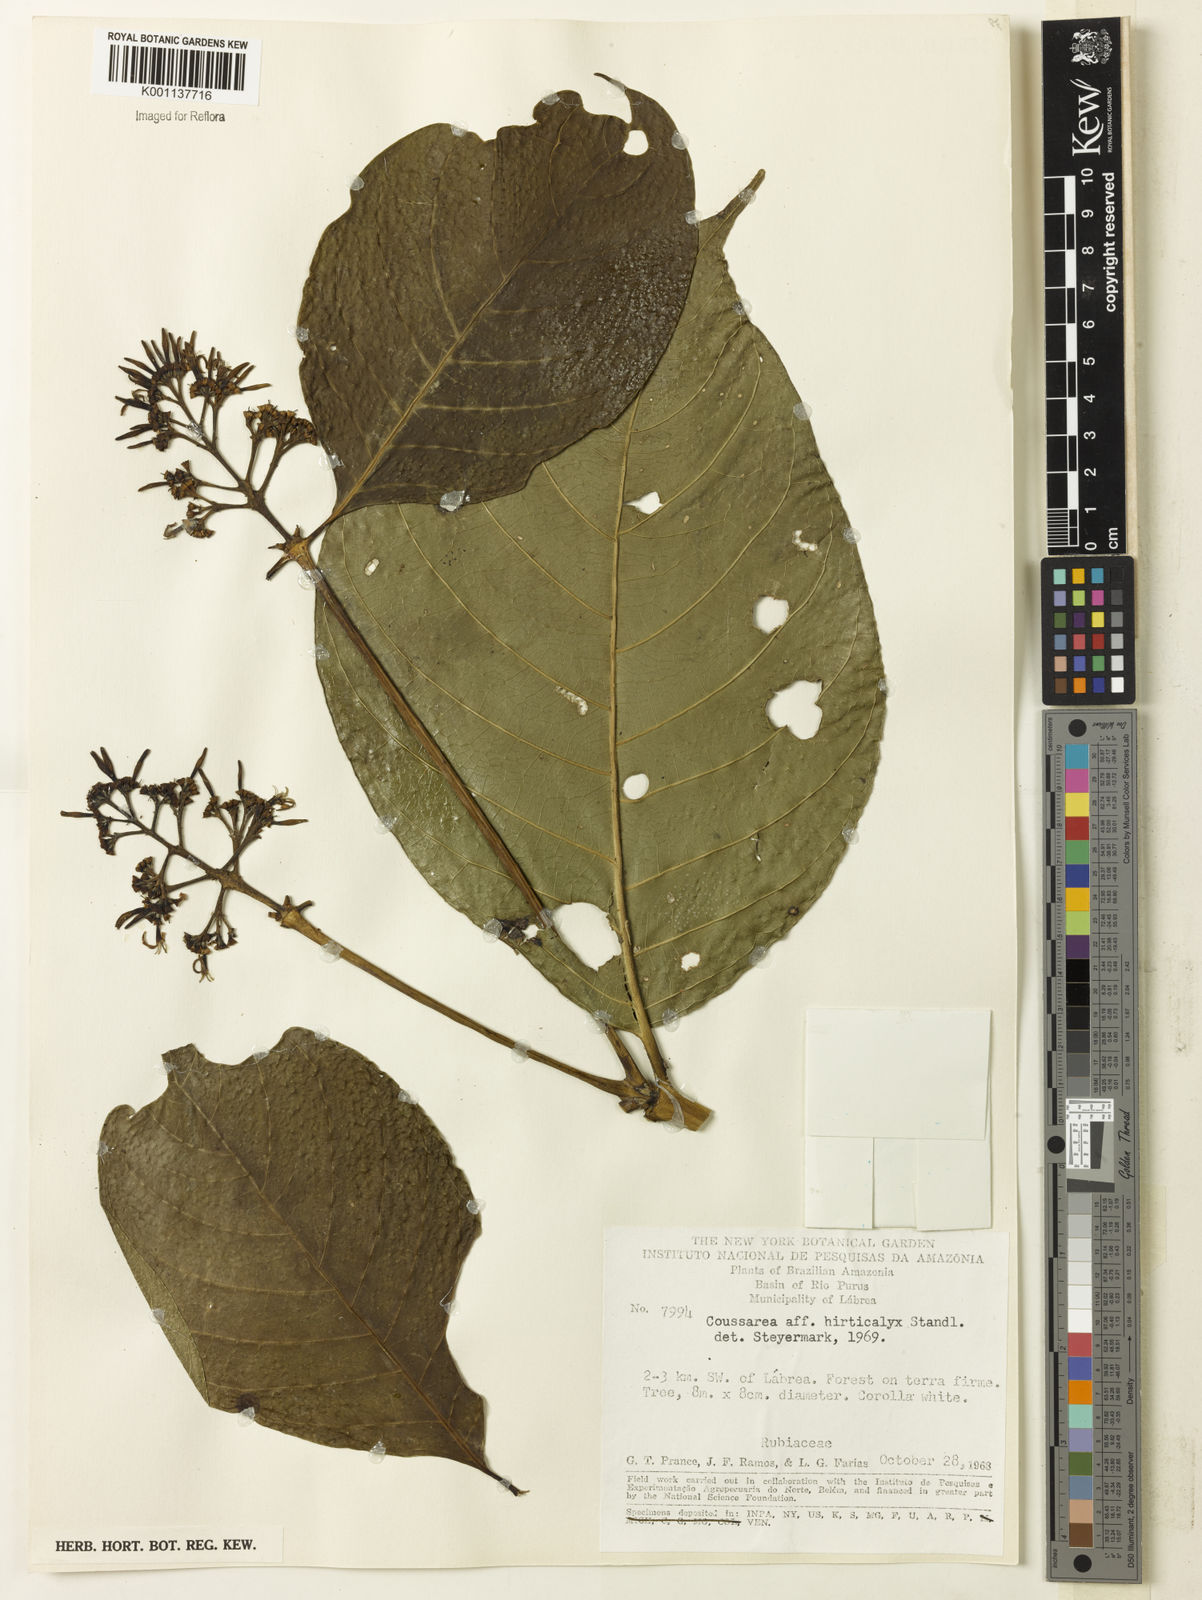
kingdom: Plantae
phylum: Tracheophyta
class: Magnoliopsida
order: Gentianales
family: Rubiaceae
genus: Coussarea
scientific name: Coussarea hirticalyx
